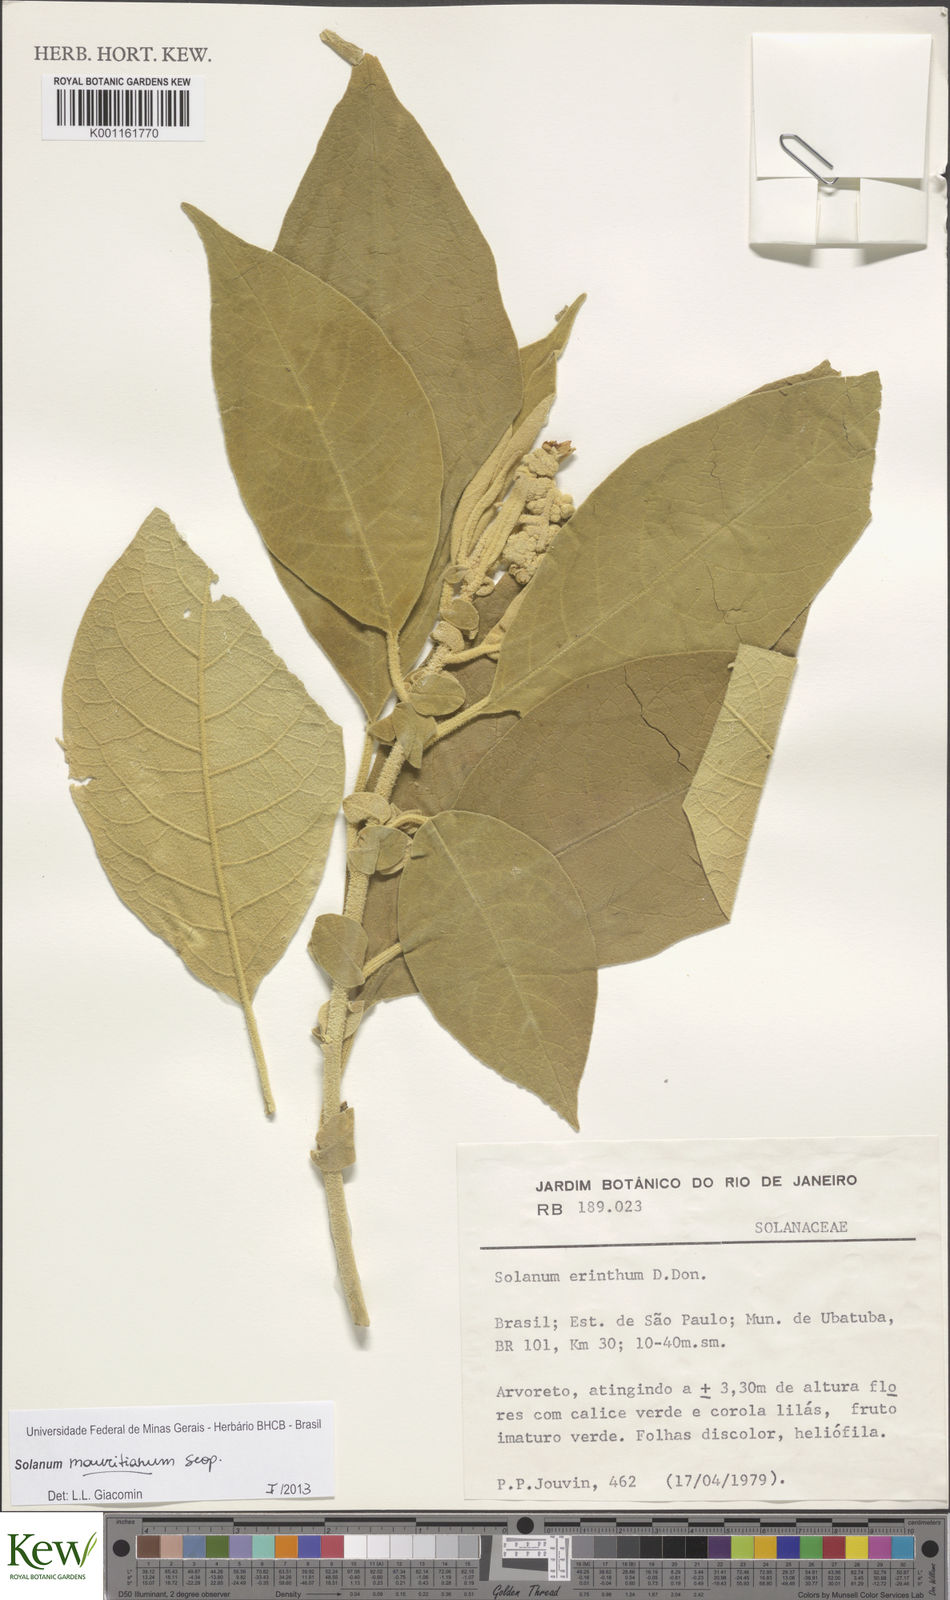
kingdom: Plantae
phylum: Tracheophyta
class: Magnoliopsida
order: Solanales
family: Solanaceae
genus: Solanum
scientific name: Solanum mauritianum
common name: Earleaf nightshade
